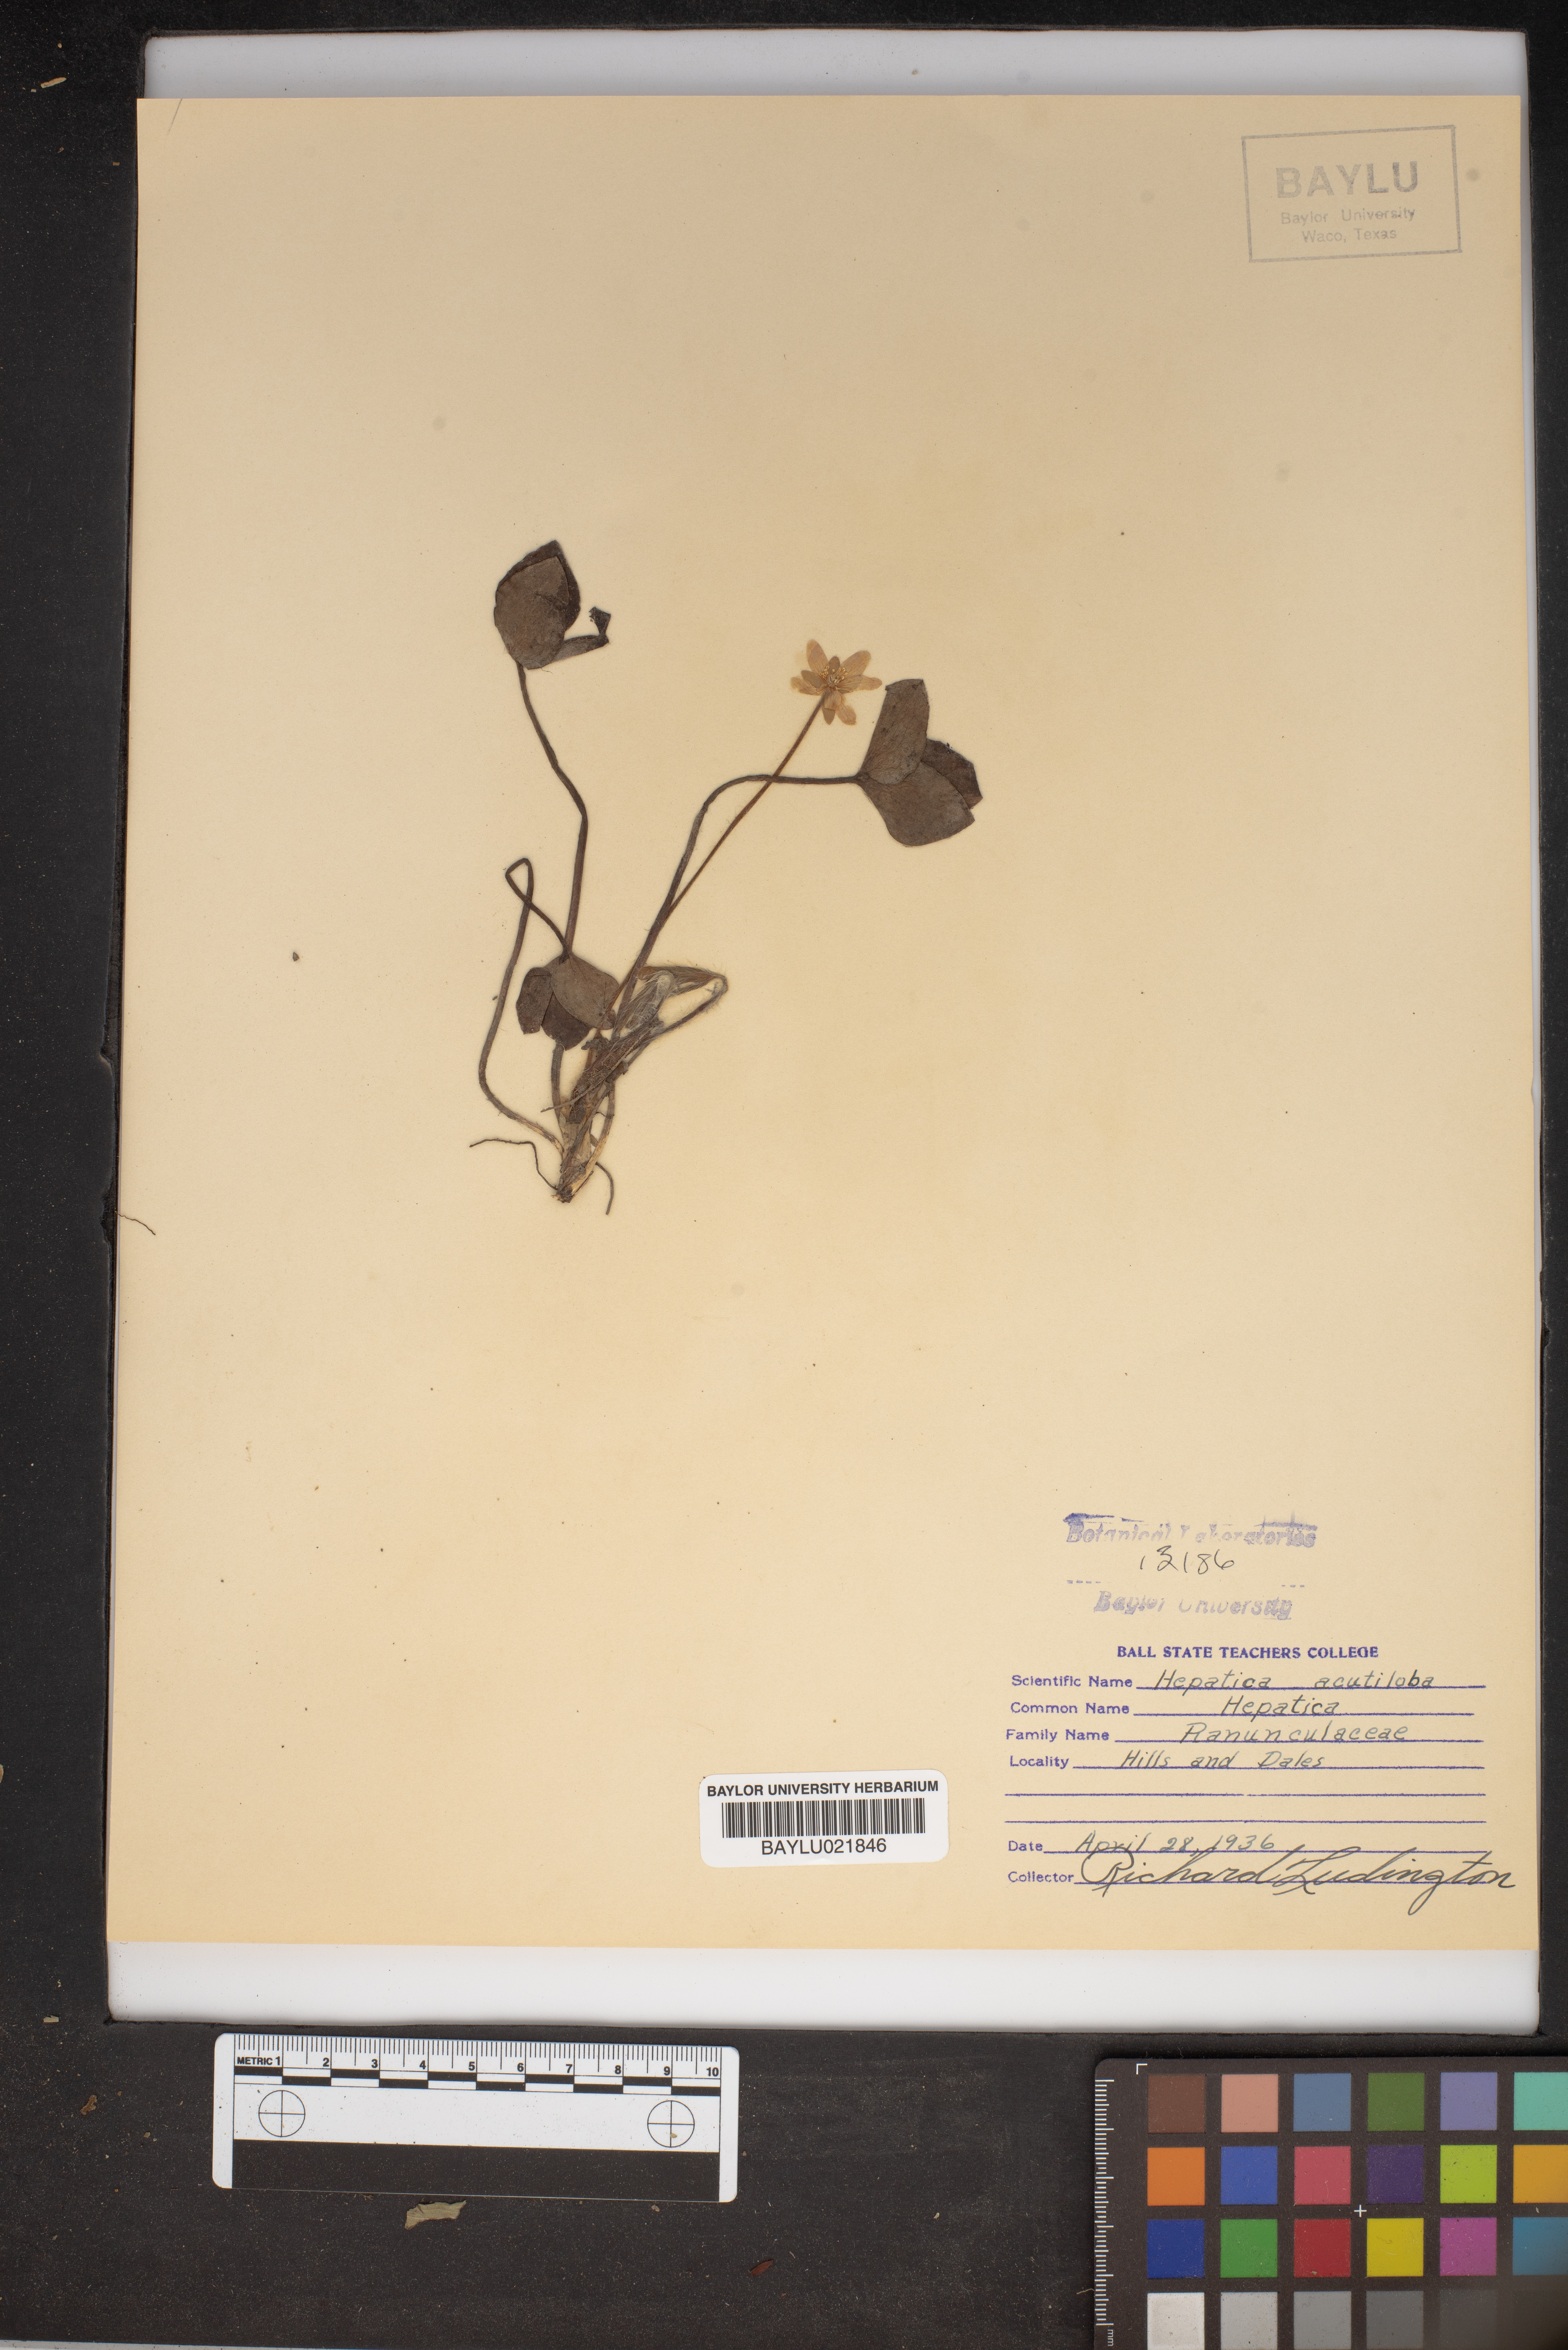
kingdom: Plantae
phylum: Tracheophyta
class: Magnoliopsida
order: Ranunculales
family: Ranunculaceae
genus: Hepatica
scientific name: Hepatica acutiloba
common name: Sharp-lobed hepatica
